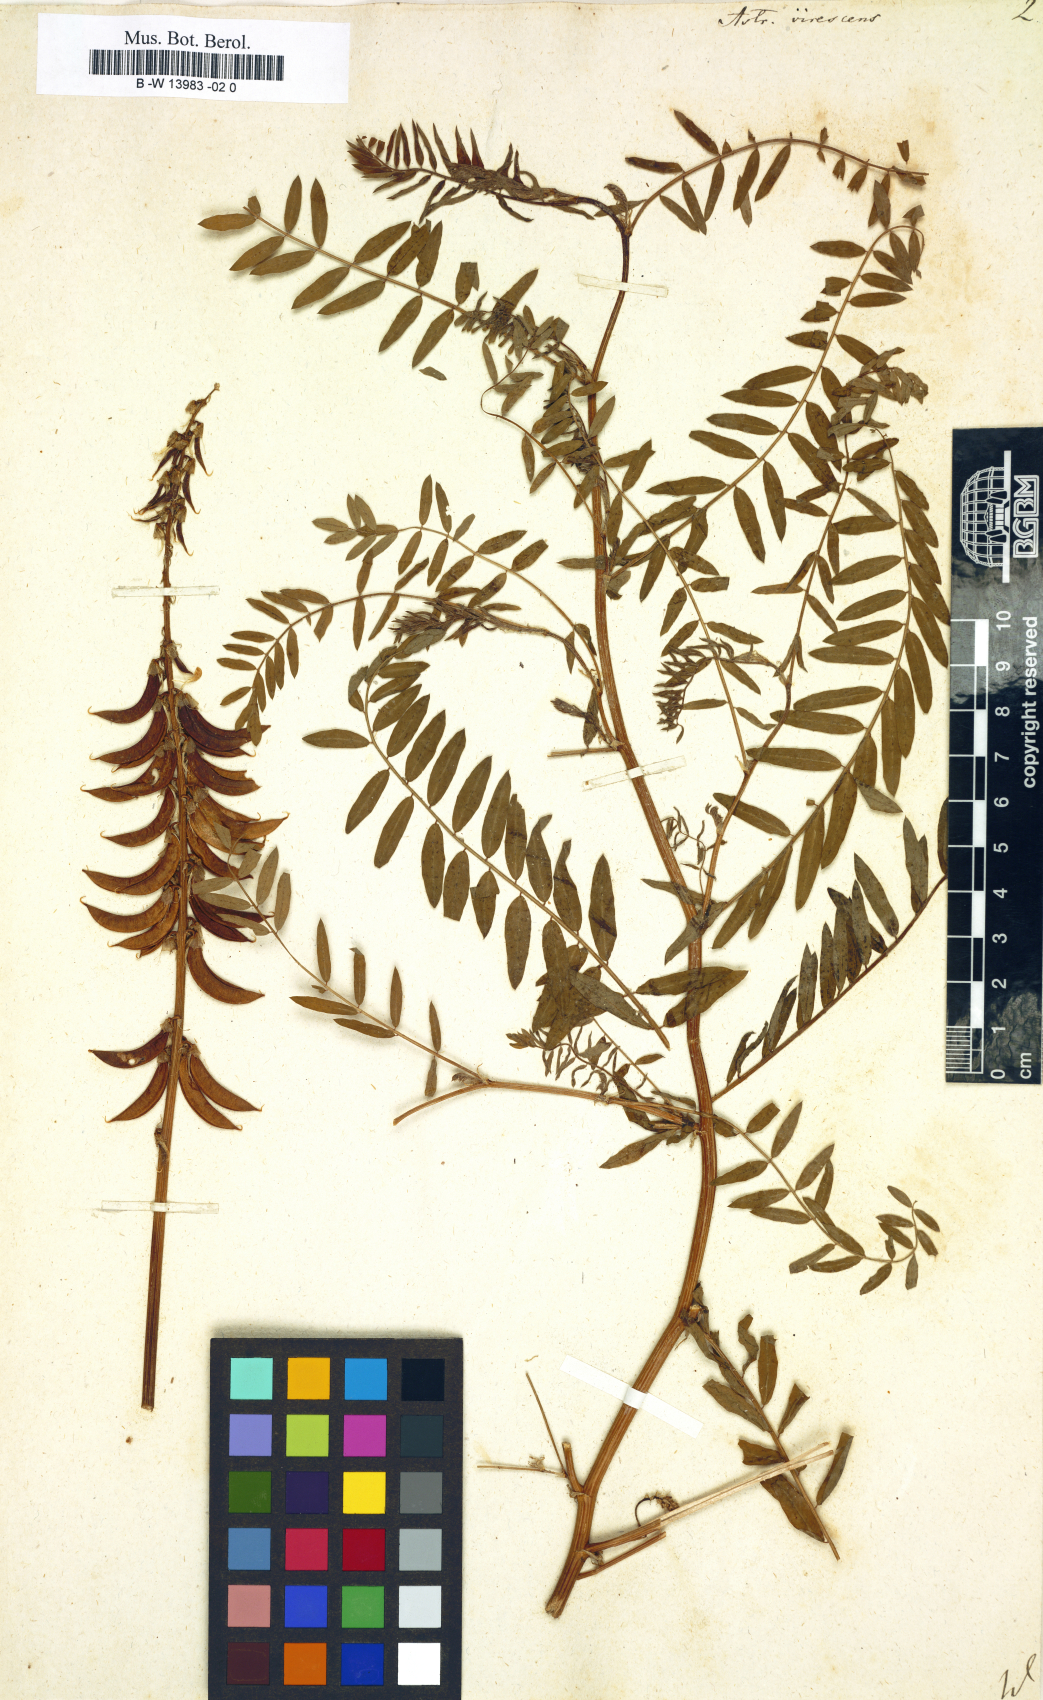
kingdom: Plantae
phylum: Tracheophyta
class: Magnoliopsida
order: Fabales
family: Fabaceae
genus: Astragalus
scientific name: Astragalus karelinianus
